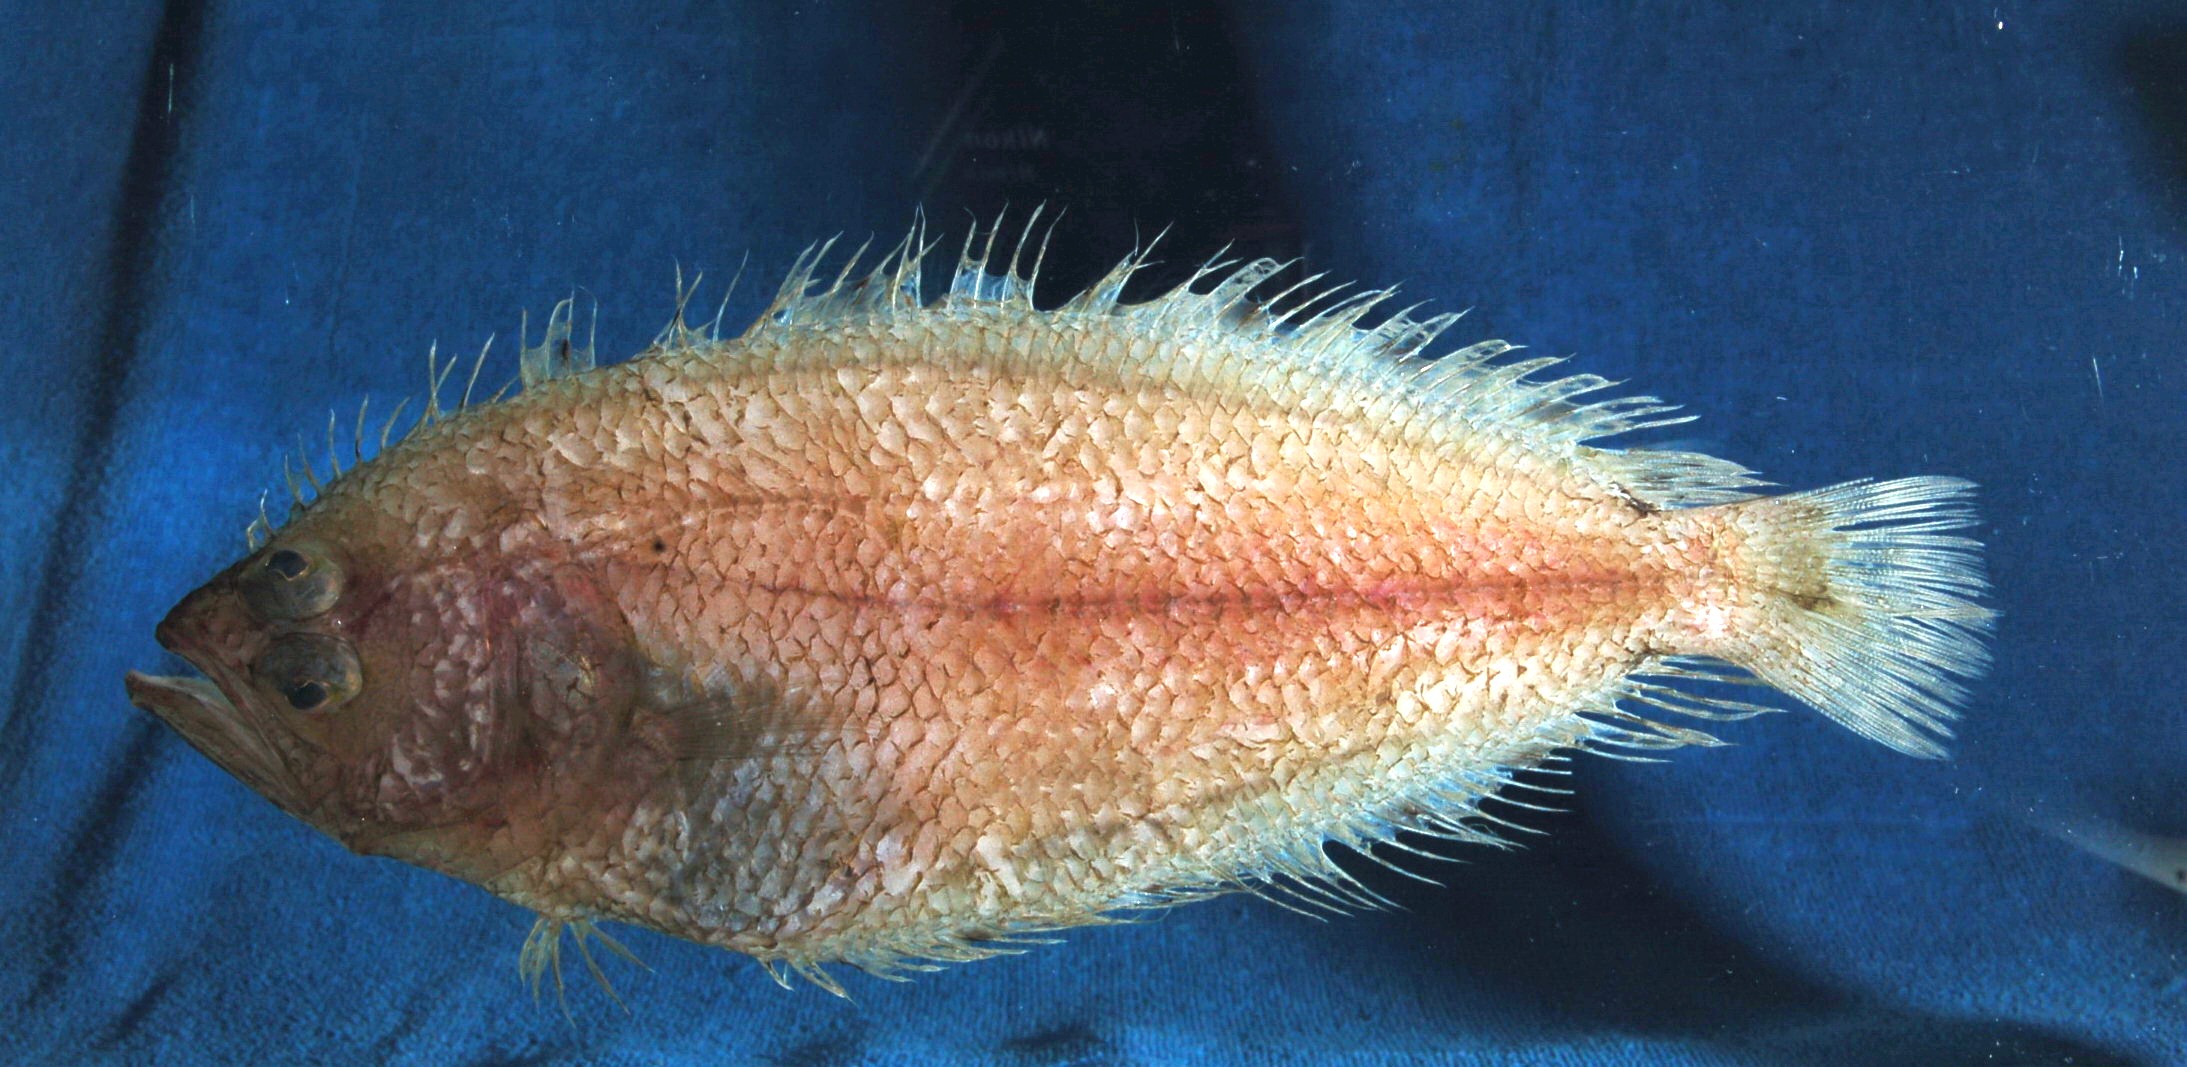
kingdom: Animalia
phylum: Chordata
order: Pleuronectiformes
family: Citharidae
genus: Citharoides
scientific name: Citharoides macrolepis
